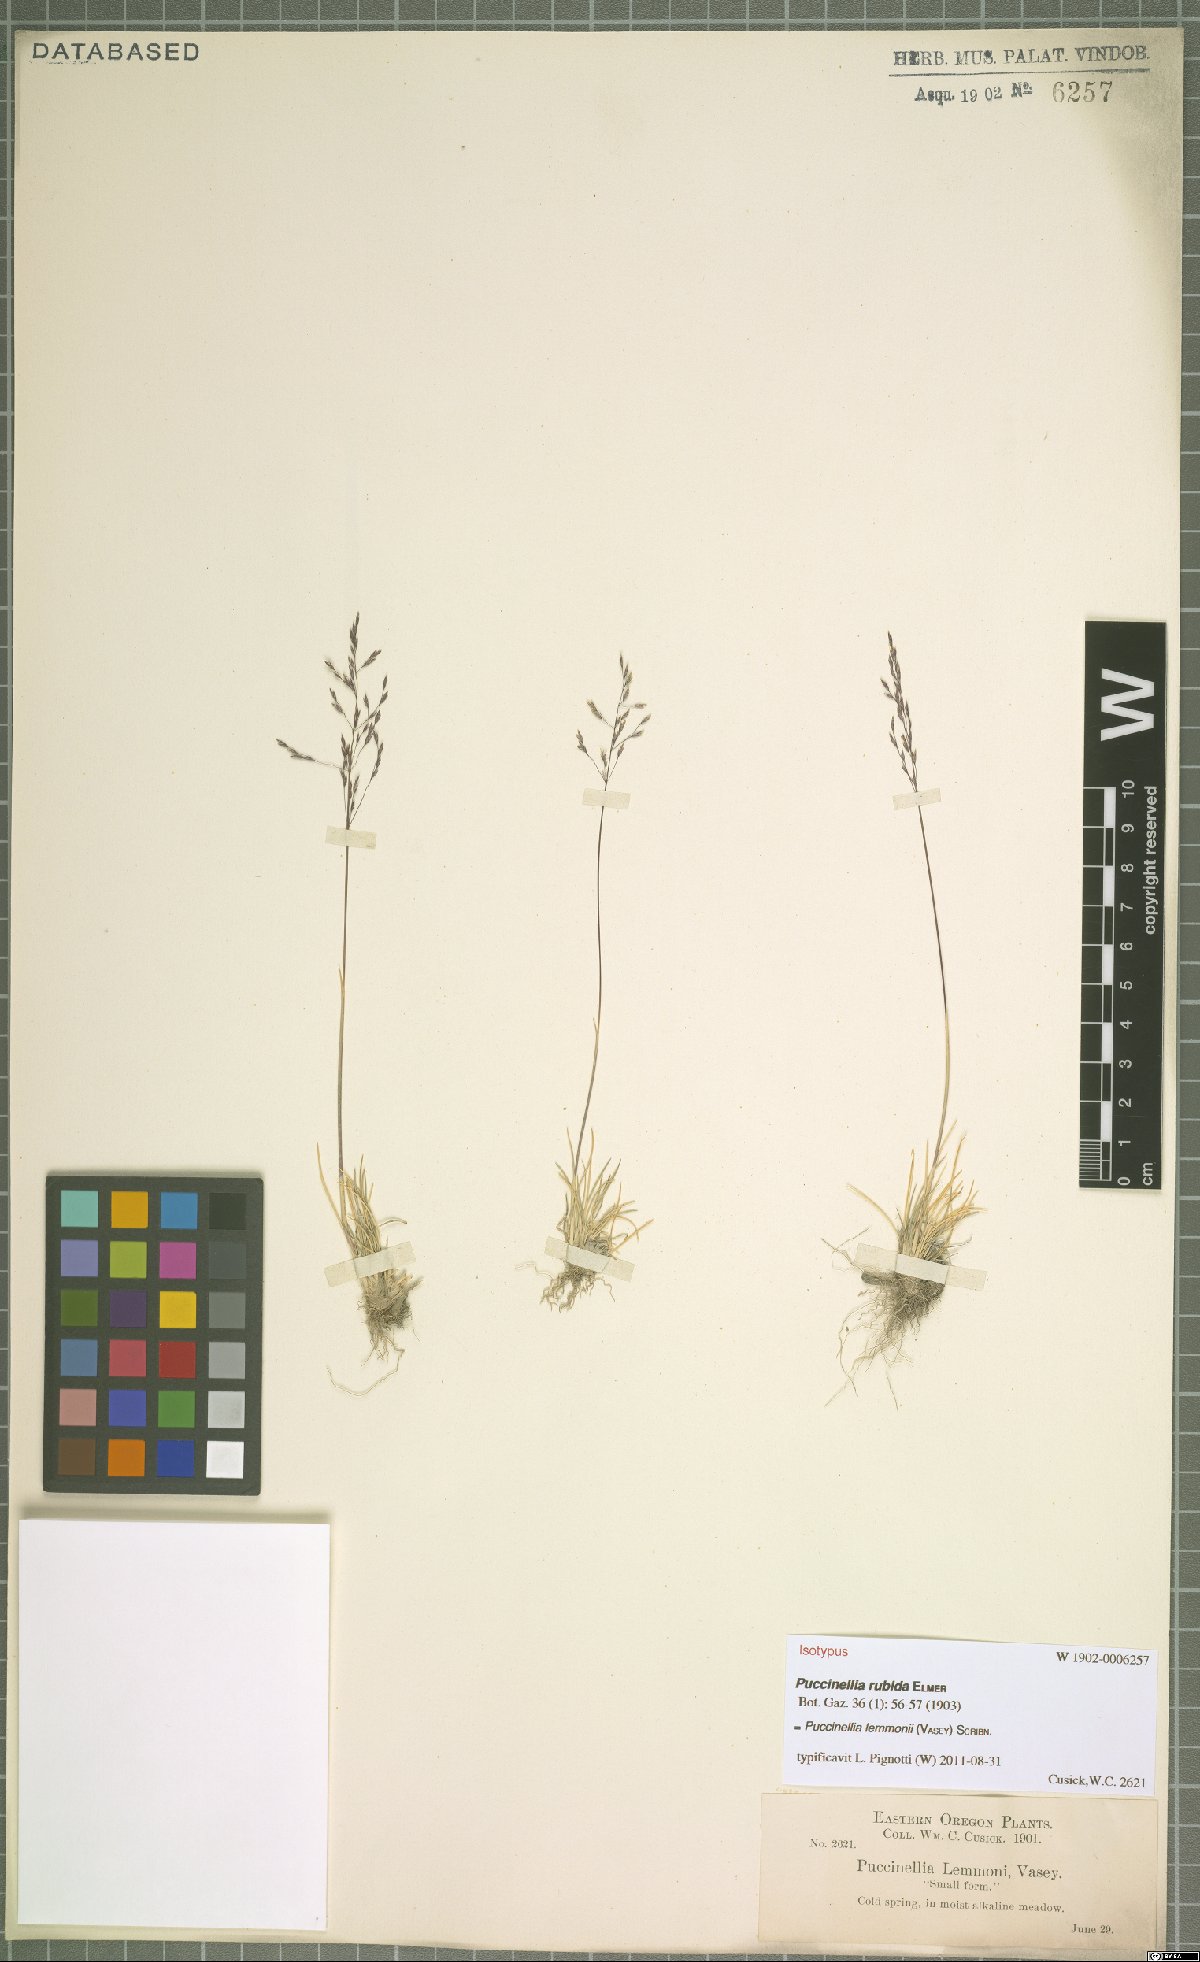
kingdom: Plantae
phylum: Tracheophyta
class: Liliopsida
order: Poales
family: Poaceae
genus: Puccinellia
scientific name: Puccinellia lemmonii
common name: Lemmon's alkali grass
